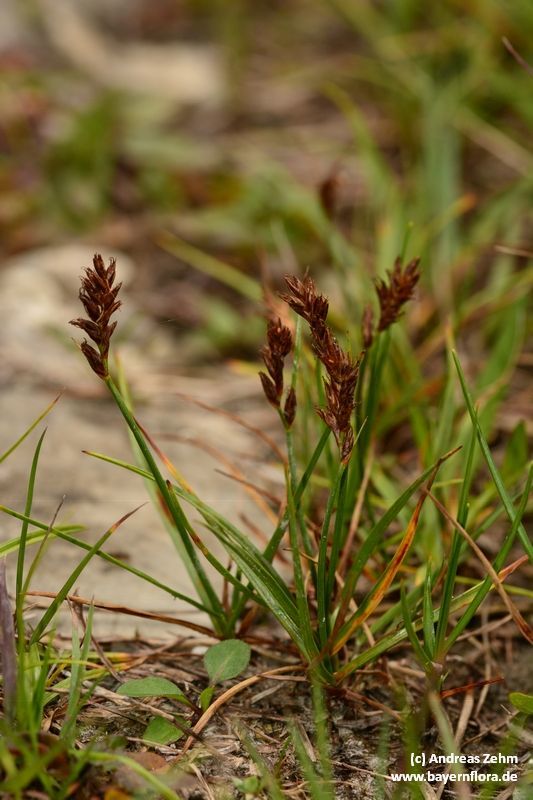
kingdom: Plantae
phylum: Tracheophyta
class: Liliopsida
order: Poales
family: Cyperaceae
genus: Blysmus
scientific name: Blysmus compressus
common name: Flat-sedge
